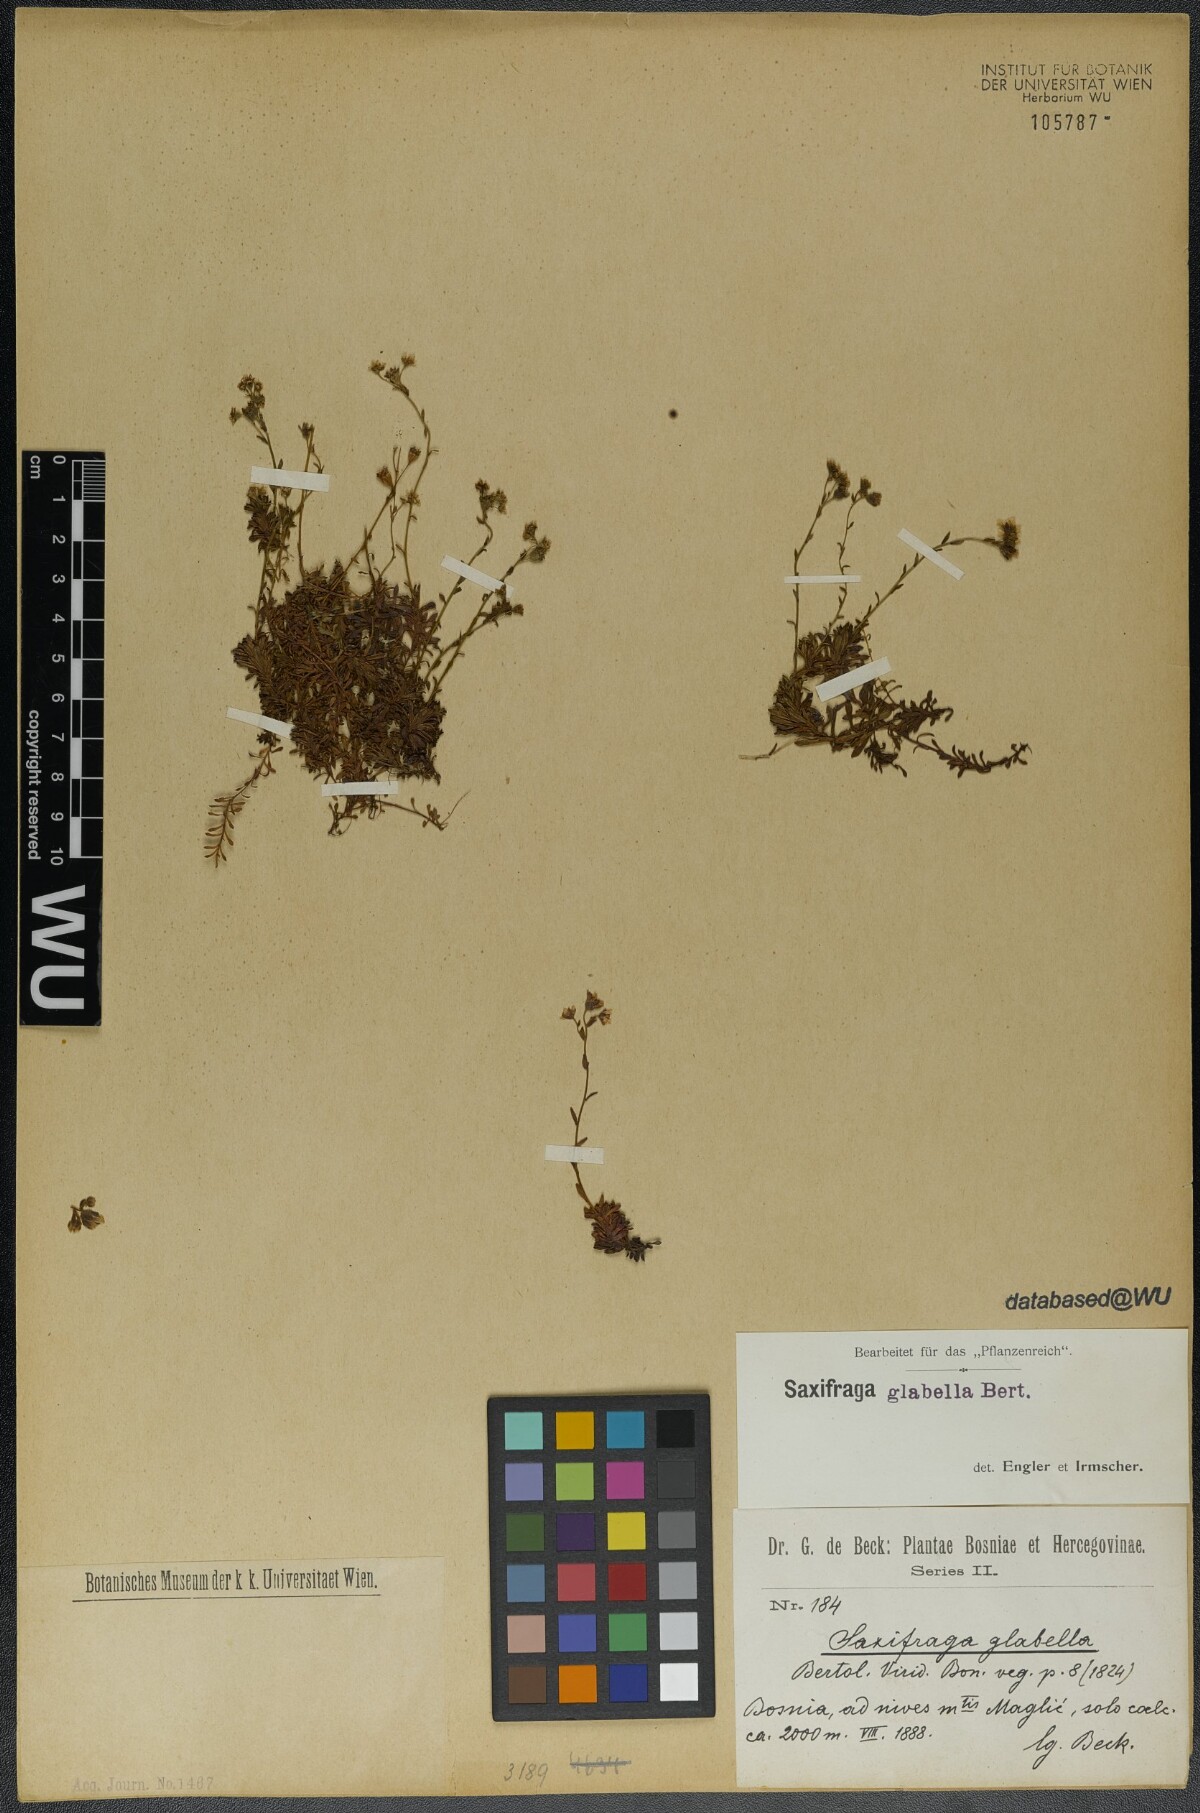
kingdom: Plantae
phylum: Tracheophyta
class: Magnoliopsida
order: Saxifragales
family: Saxifragaceae
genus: Saxifraga
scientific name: Saxifraga glabella
